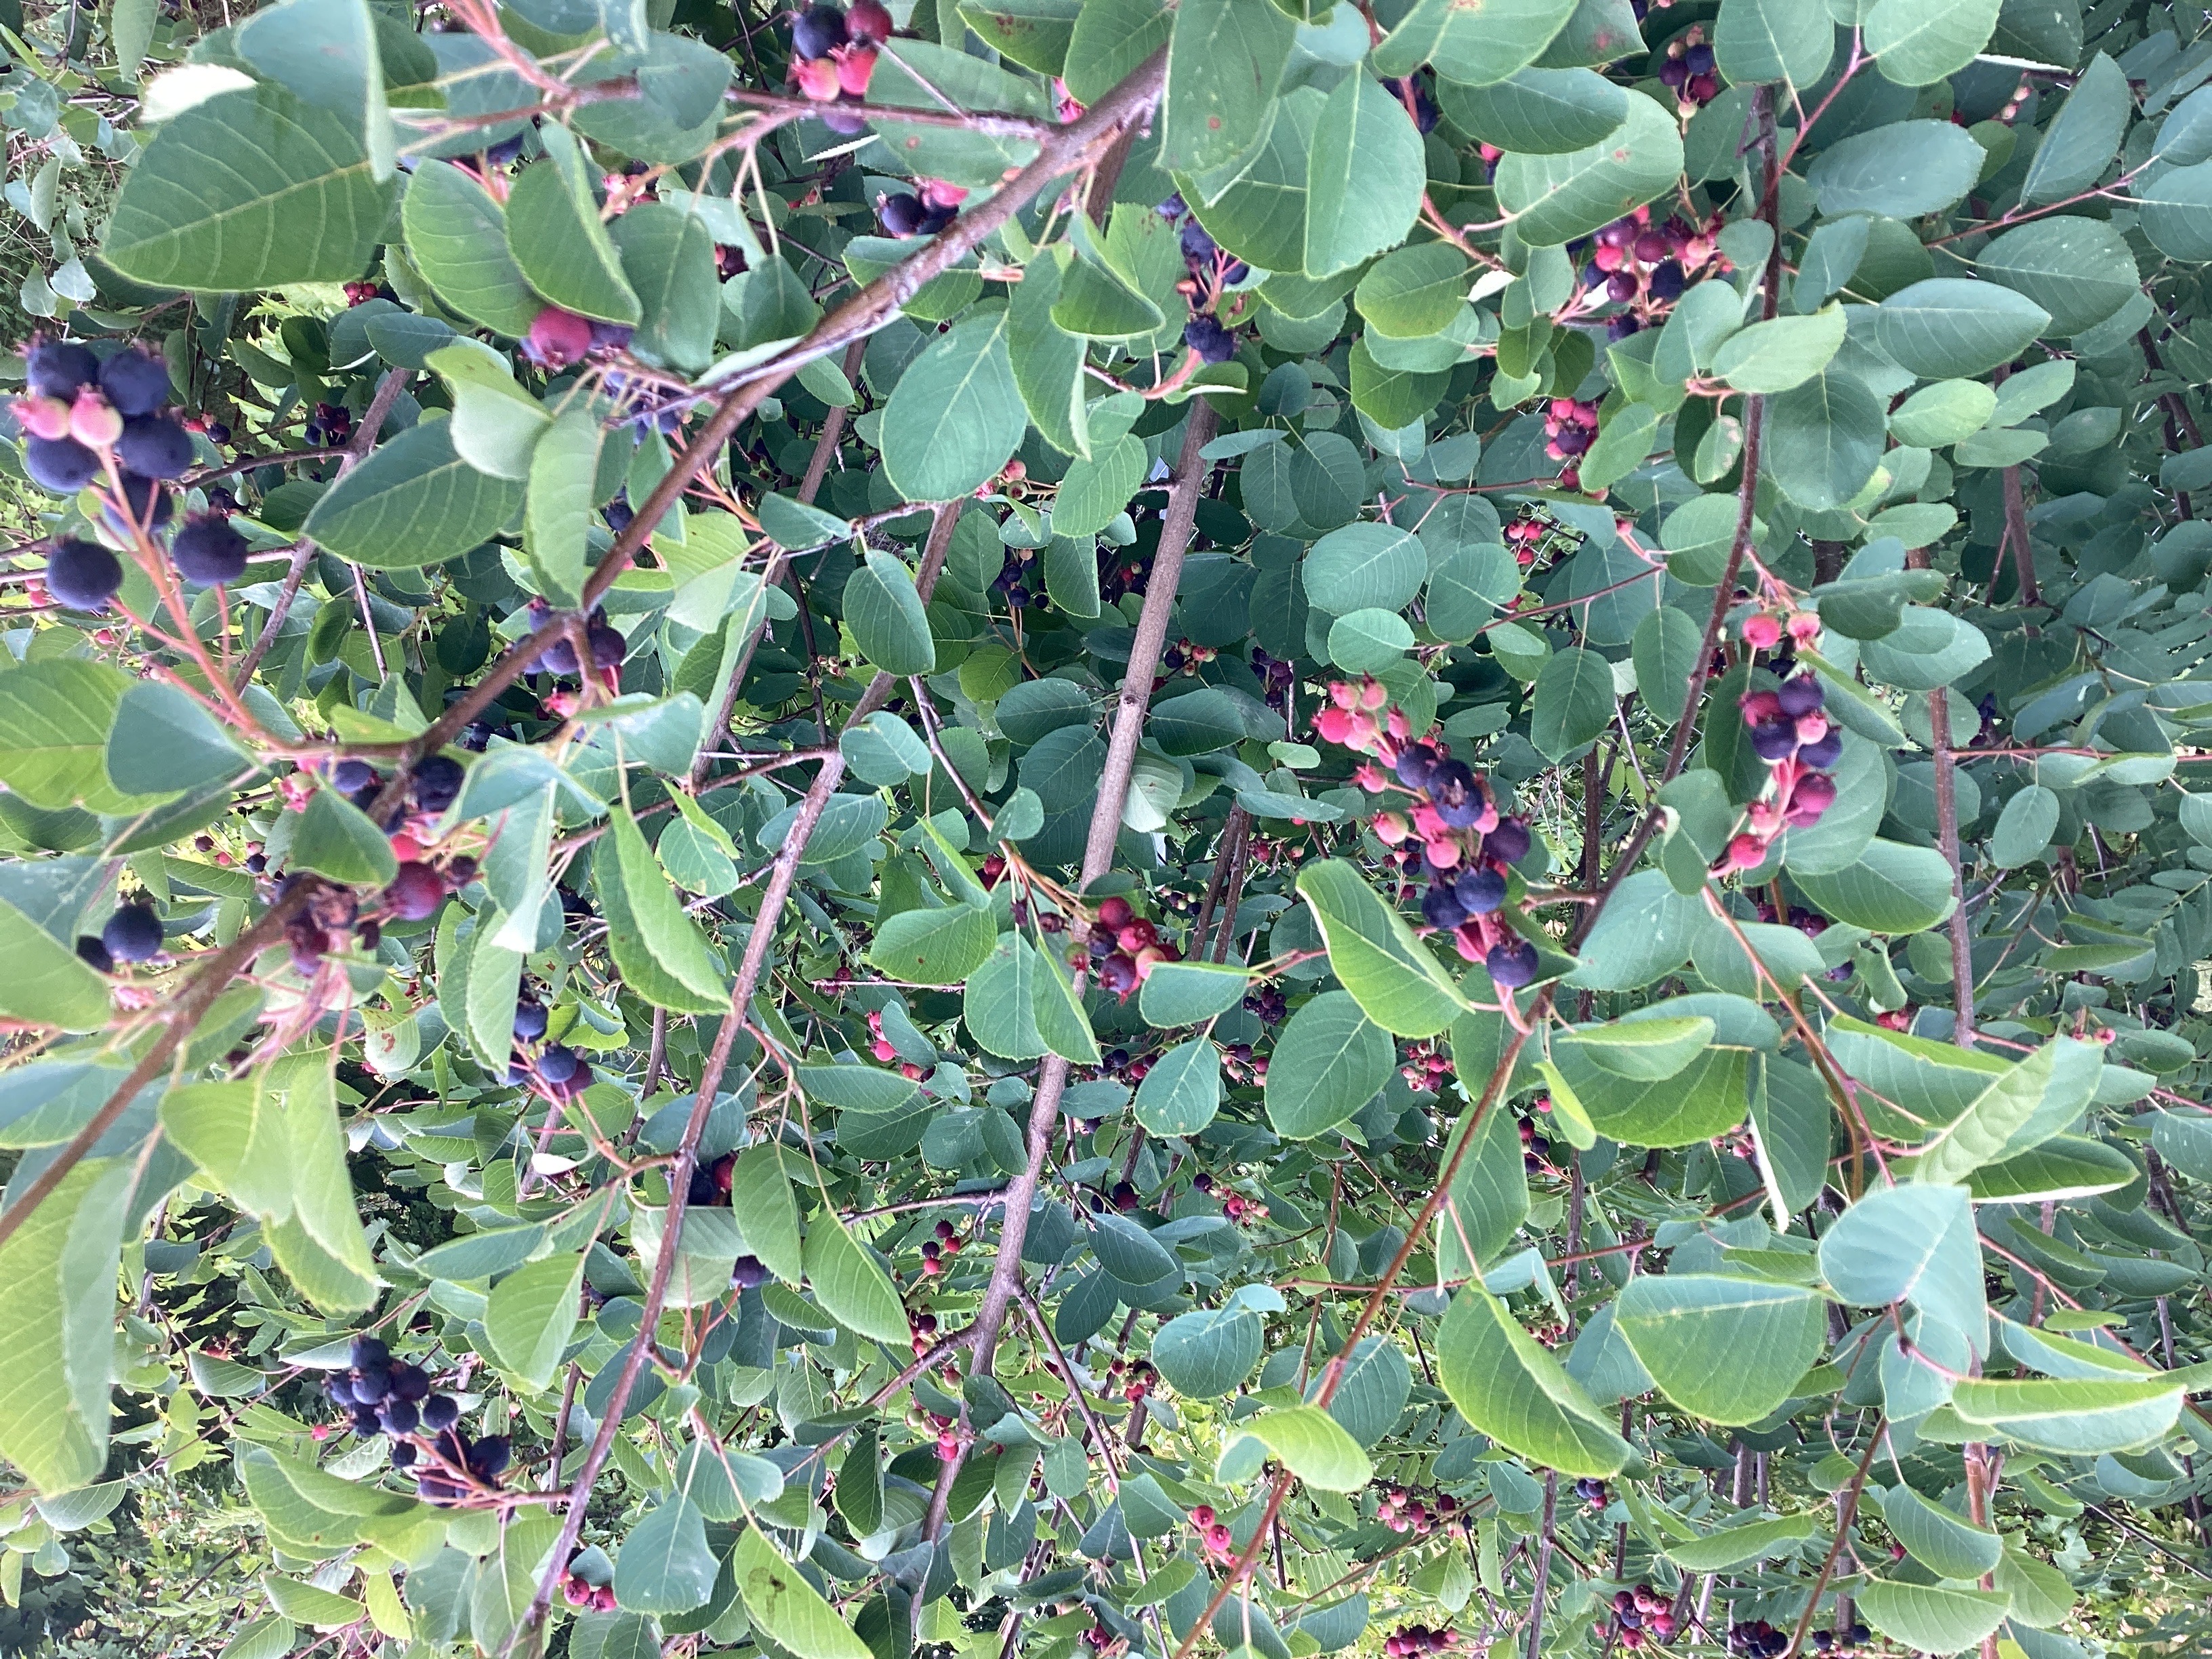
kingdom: Plantae
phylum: Tracheophyta
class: Magnoliopsida
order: Rosales
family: Rosaceae
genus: Amelanchier
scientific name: Amelanchier humilis
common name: blåhegg
